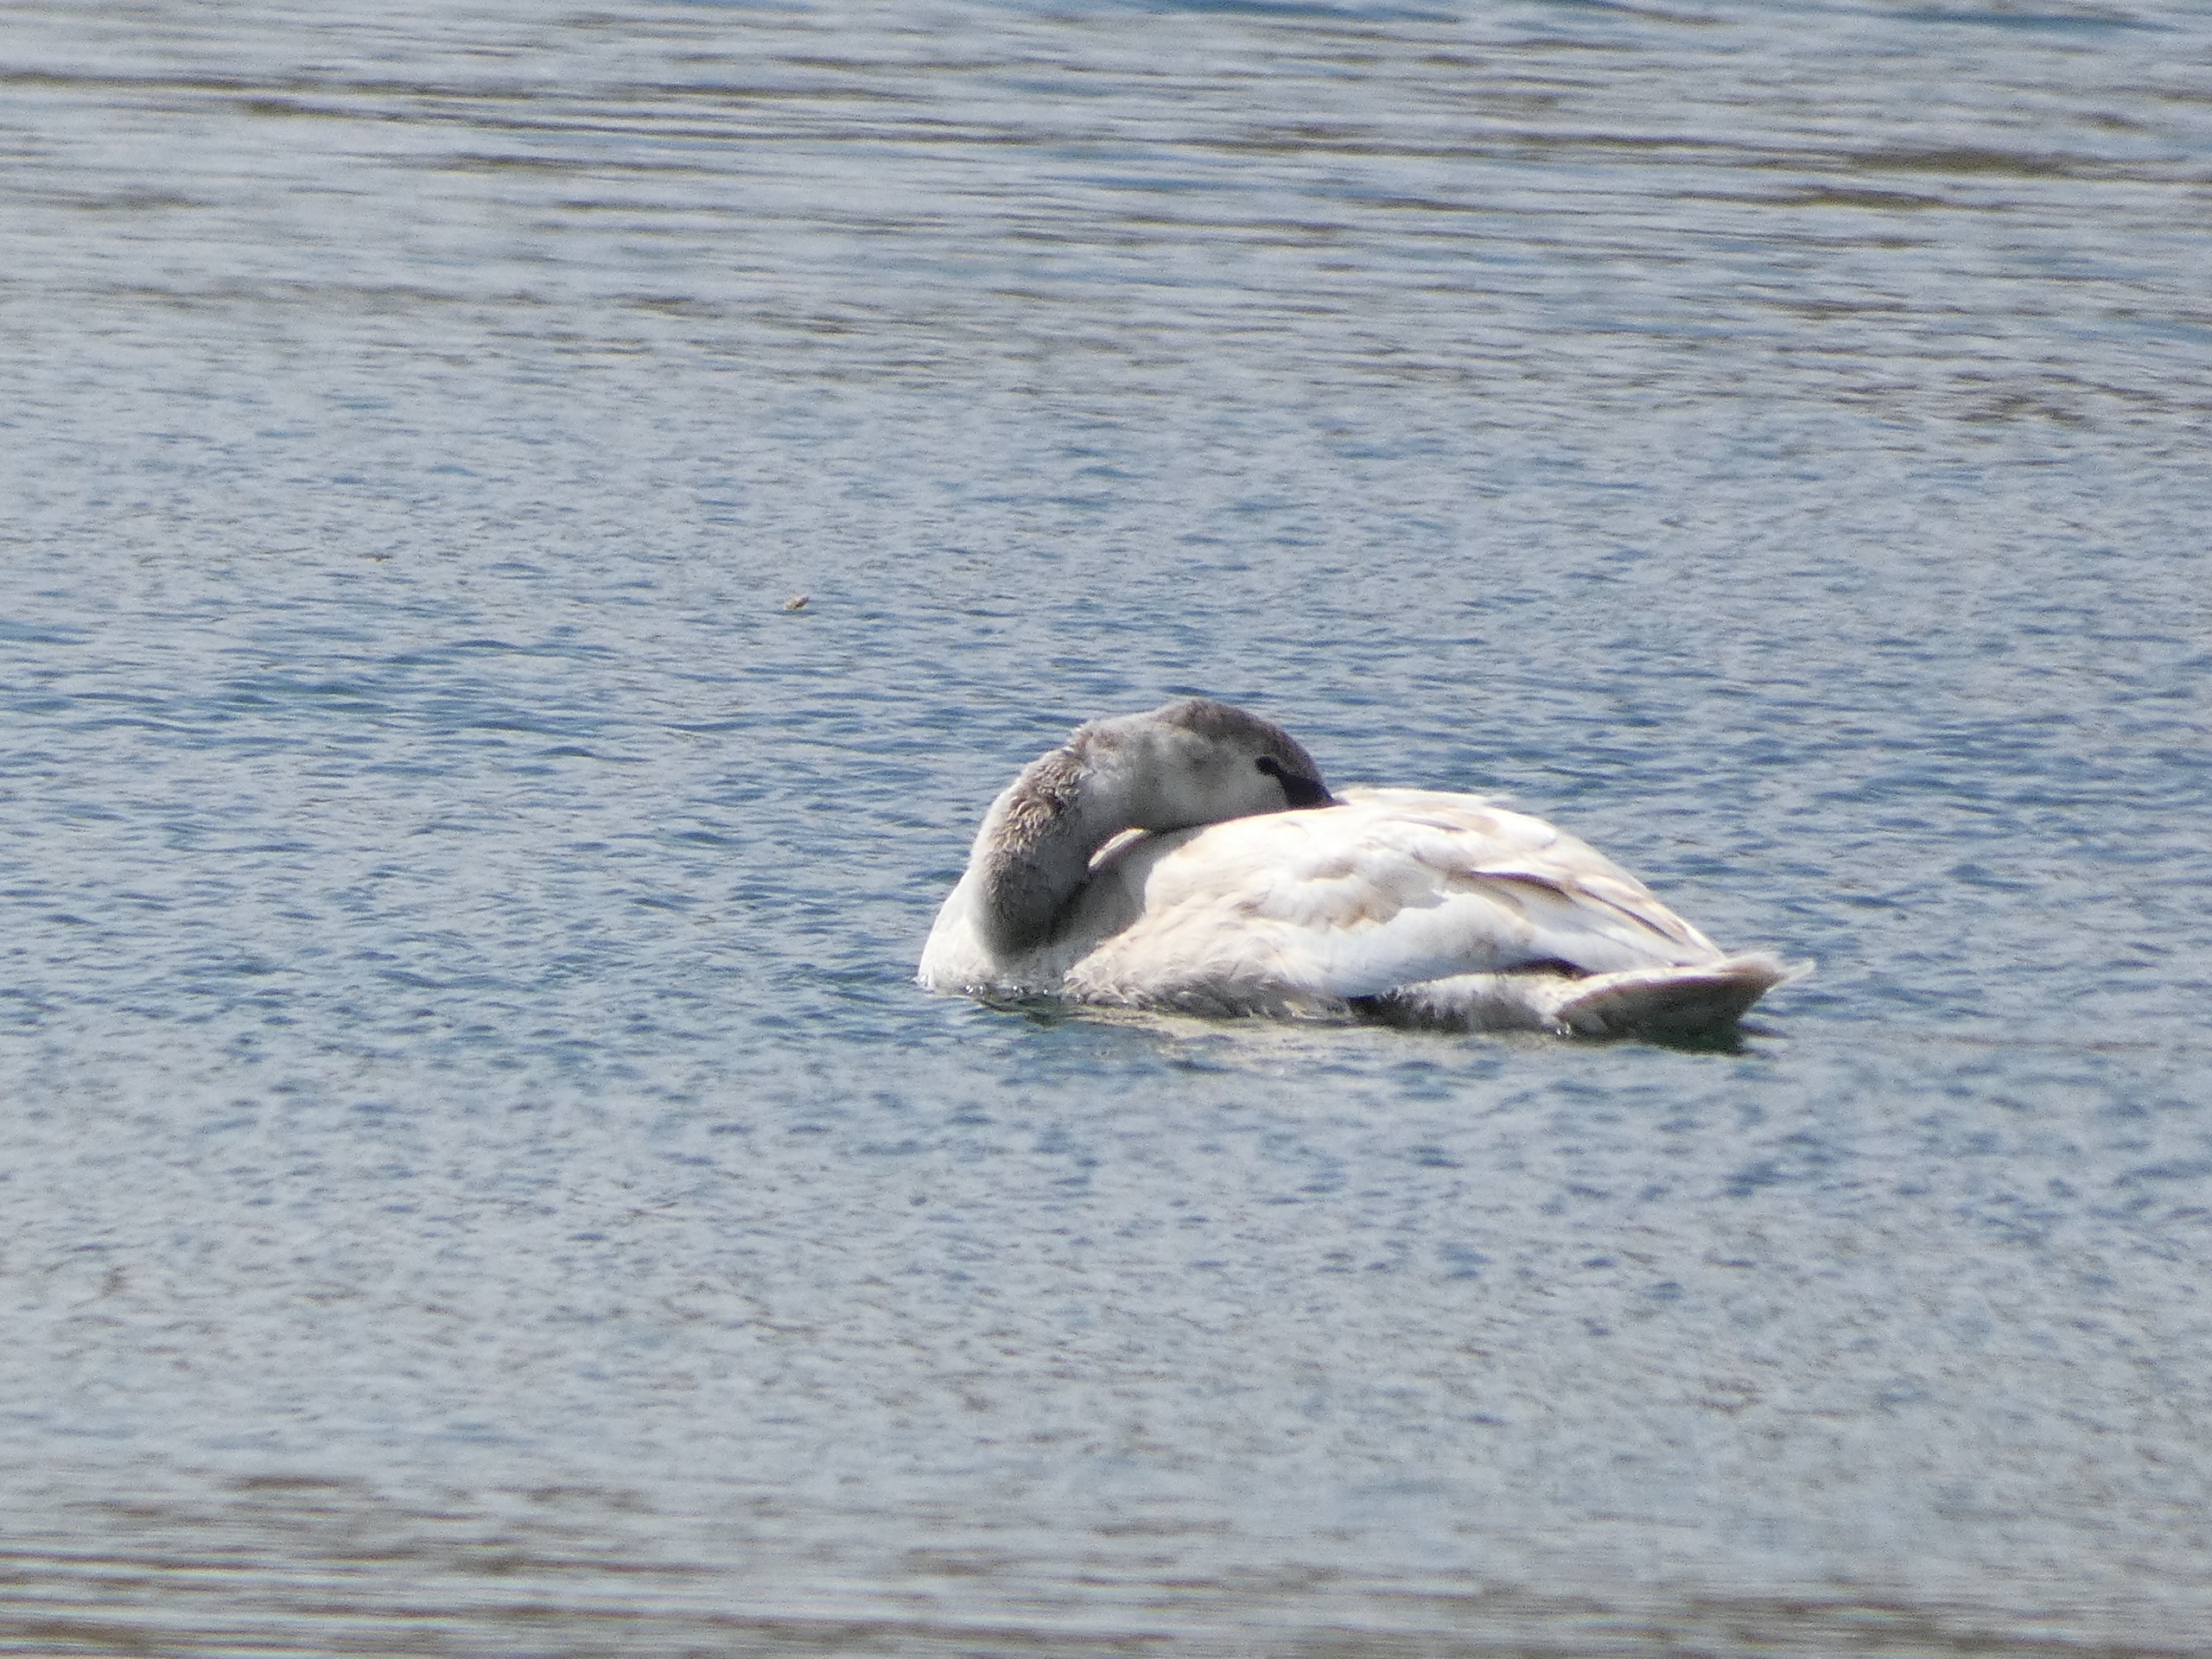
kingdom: Animalia
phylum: Chordata
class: Aves
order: Anseriformes
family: Anatidae
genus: Cygnus
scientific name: Cygnus olor
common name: Knopsvane
